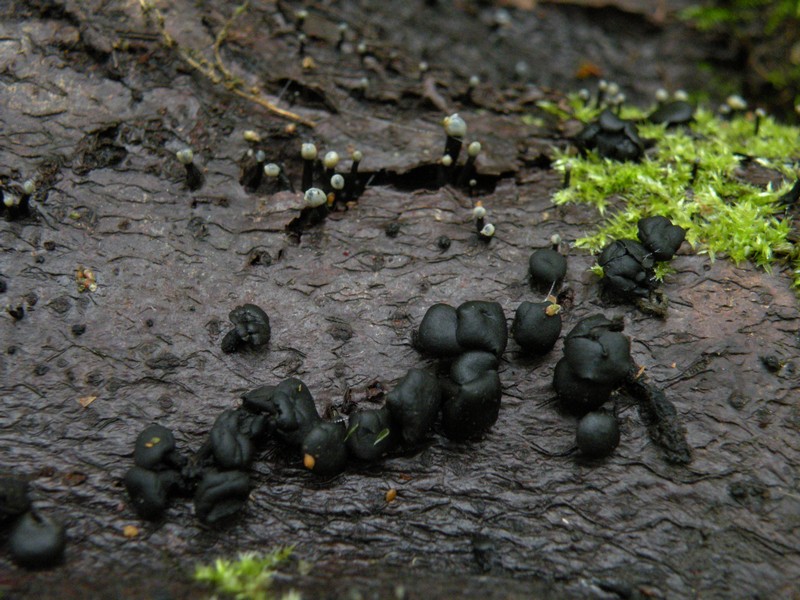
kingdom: Fungi
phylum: Ascomycota
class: Leotiomycetes
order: Helotiales
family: Bulgariaceae
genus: Holwaya
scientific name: Holwaya mucida
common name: lindeskive
